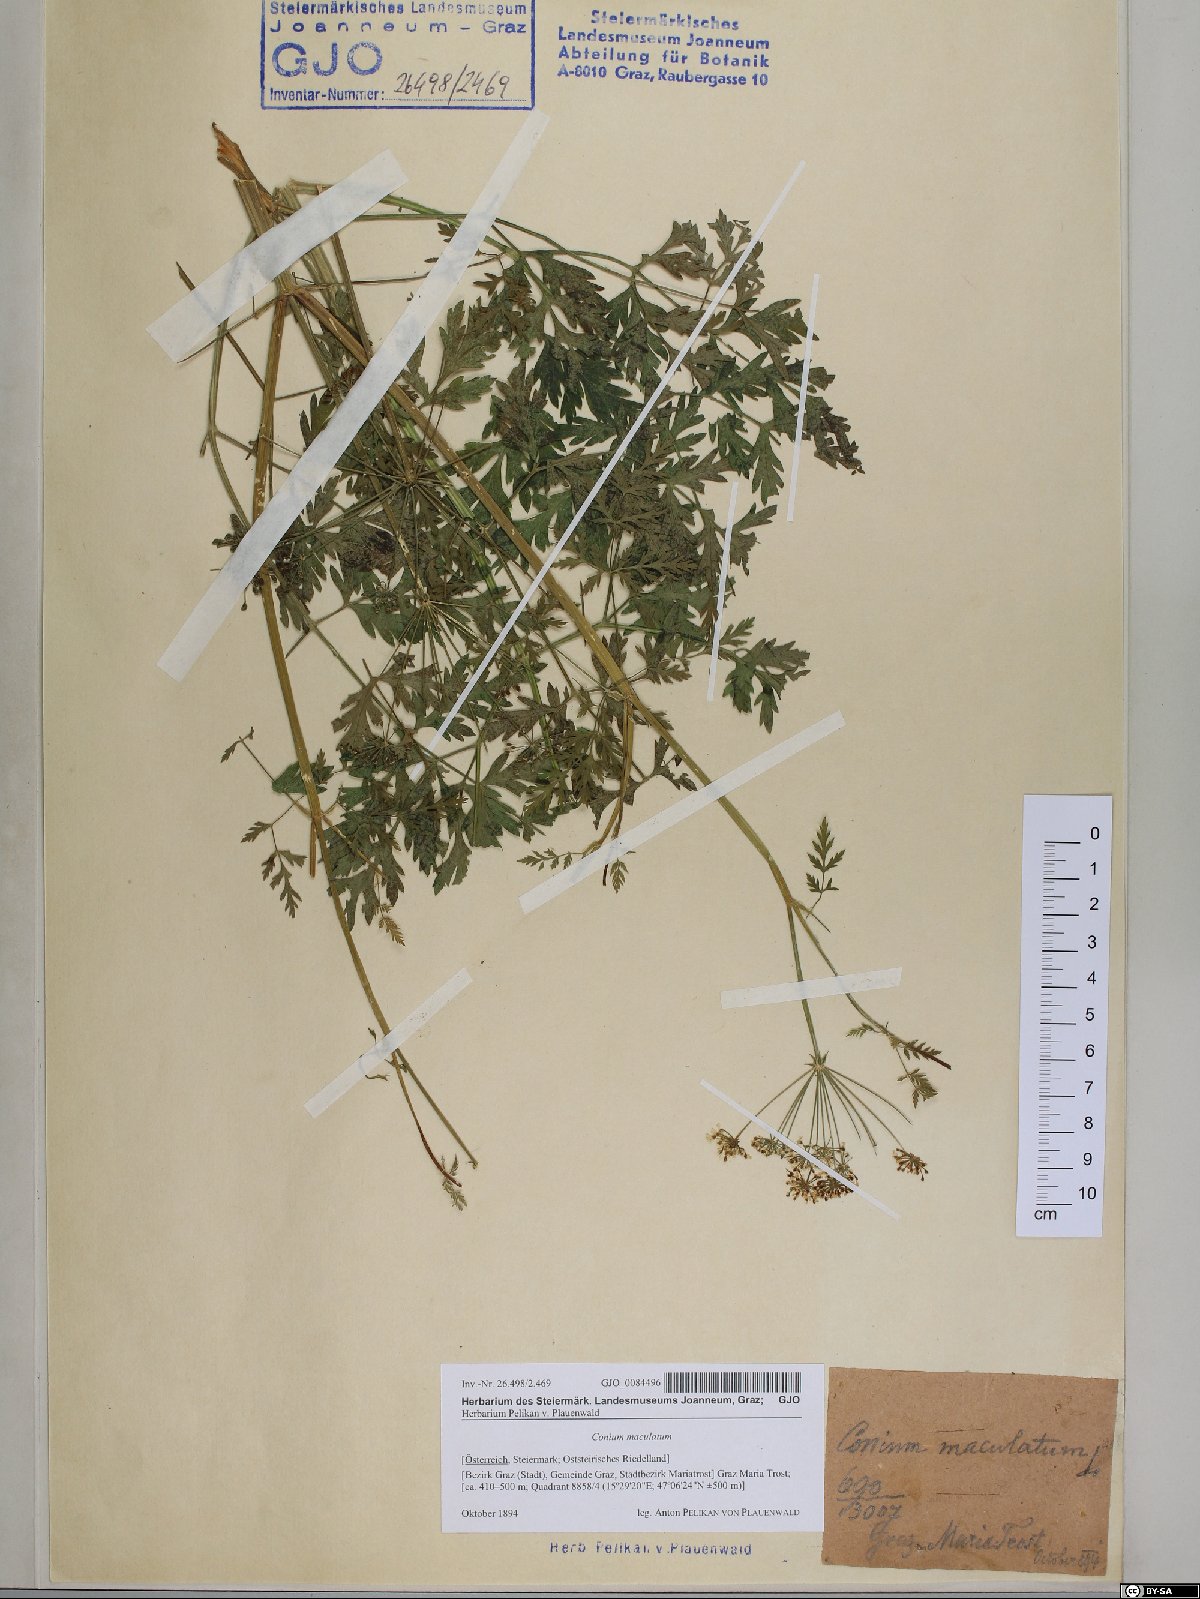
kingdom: Plantae
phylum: Tracheophyta
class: Magnoliopsida
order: Apiales
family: Apiaceae
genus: Conium
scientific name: Conium maculatum
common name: Hemlock
